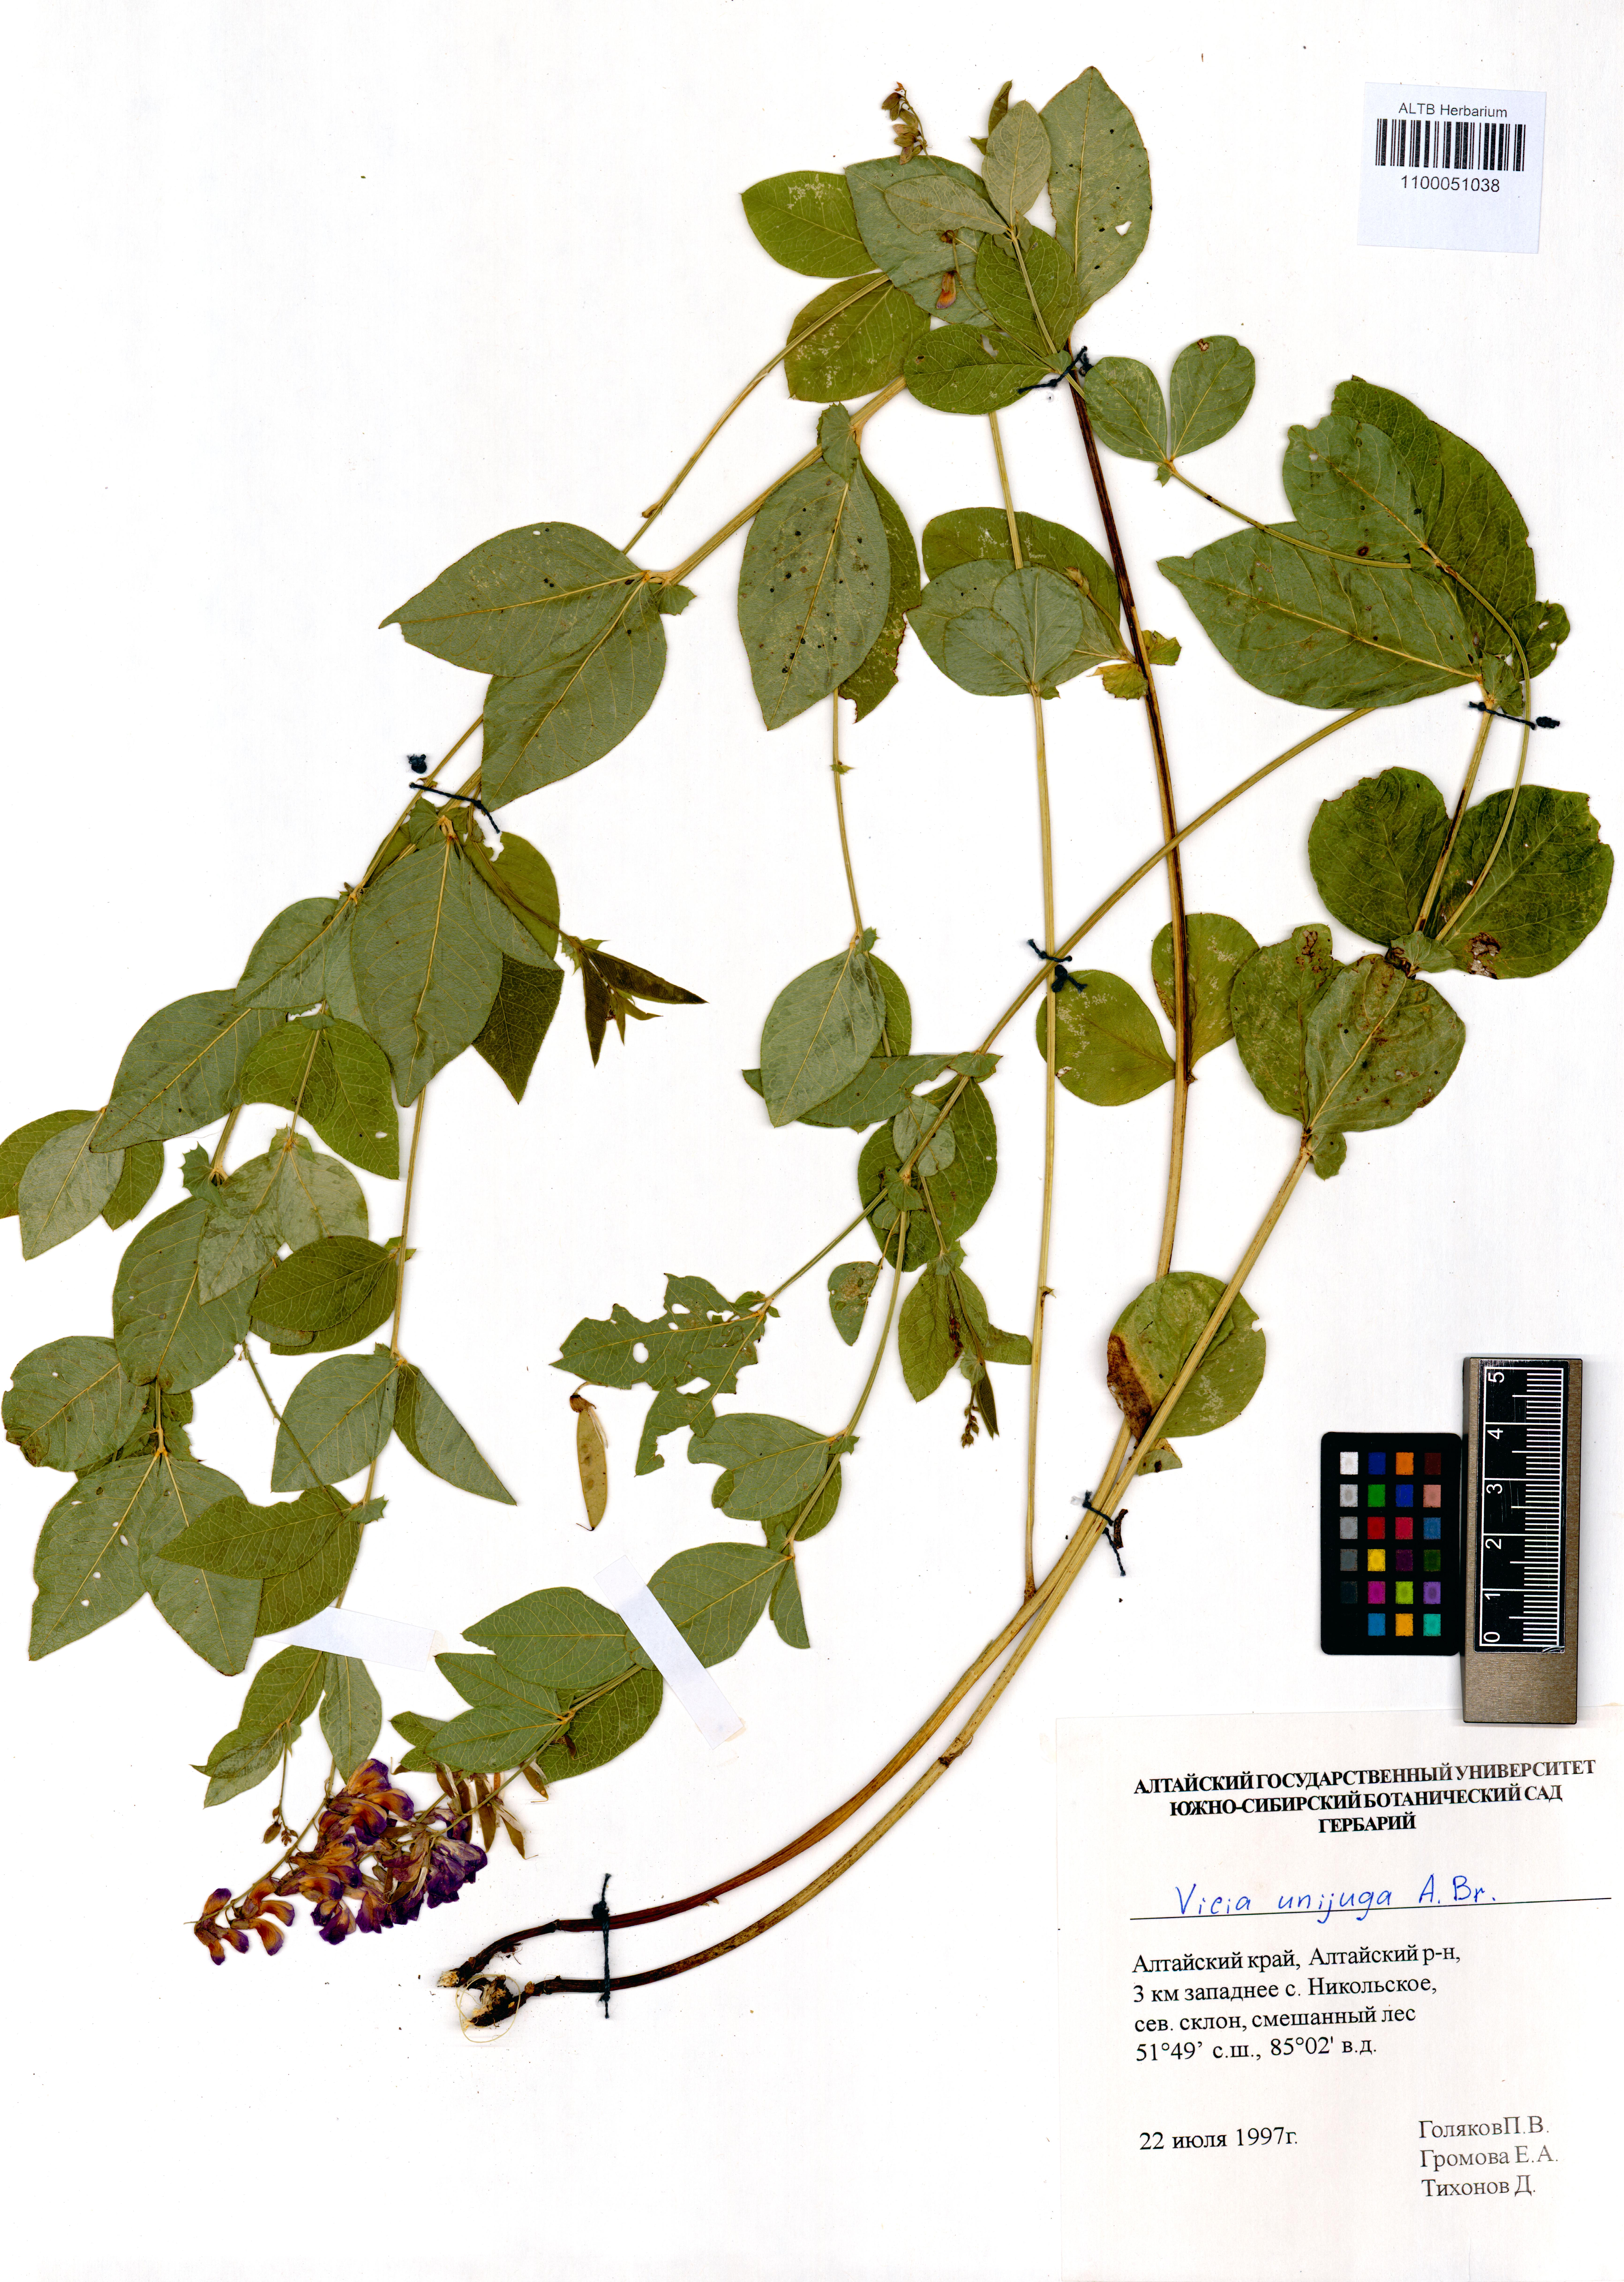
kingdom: Plantae
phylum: Tracheophyta
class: Magnoliopsida
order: Fabales
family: Fabaceae
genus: Vicia
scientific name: Vicia unijuga
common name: Two-leaf vetch
